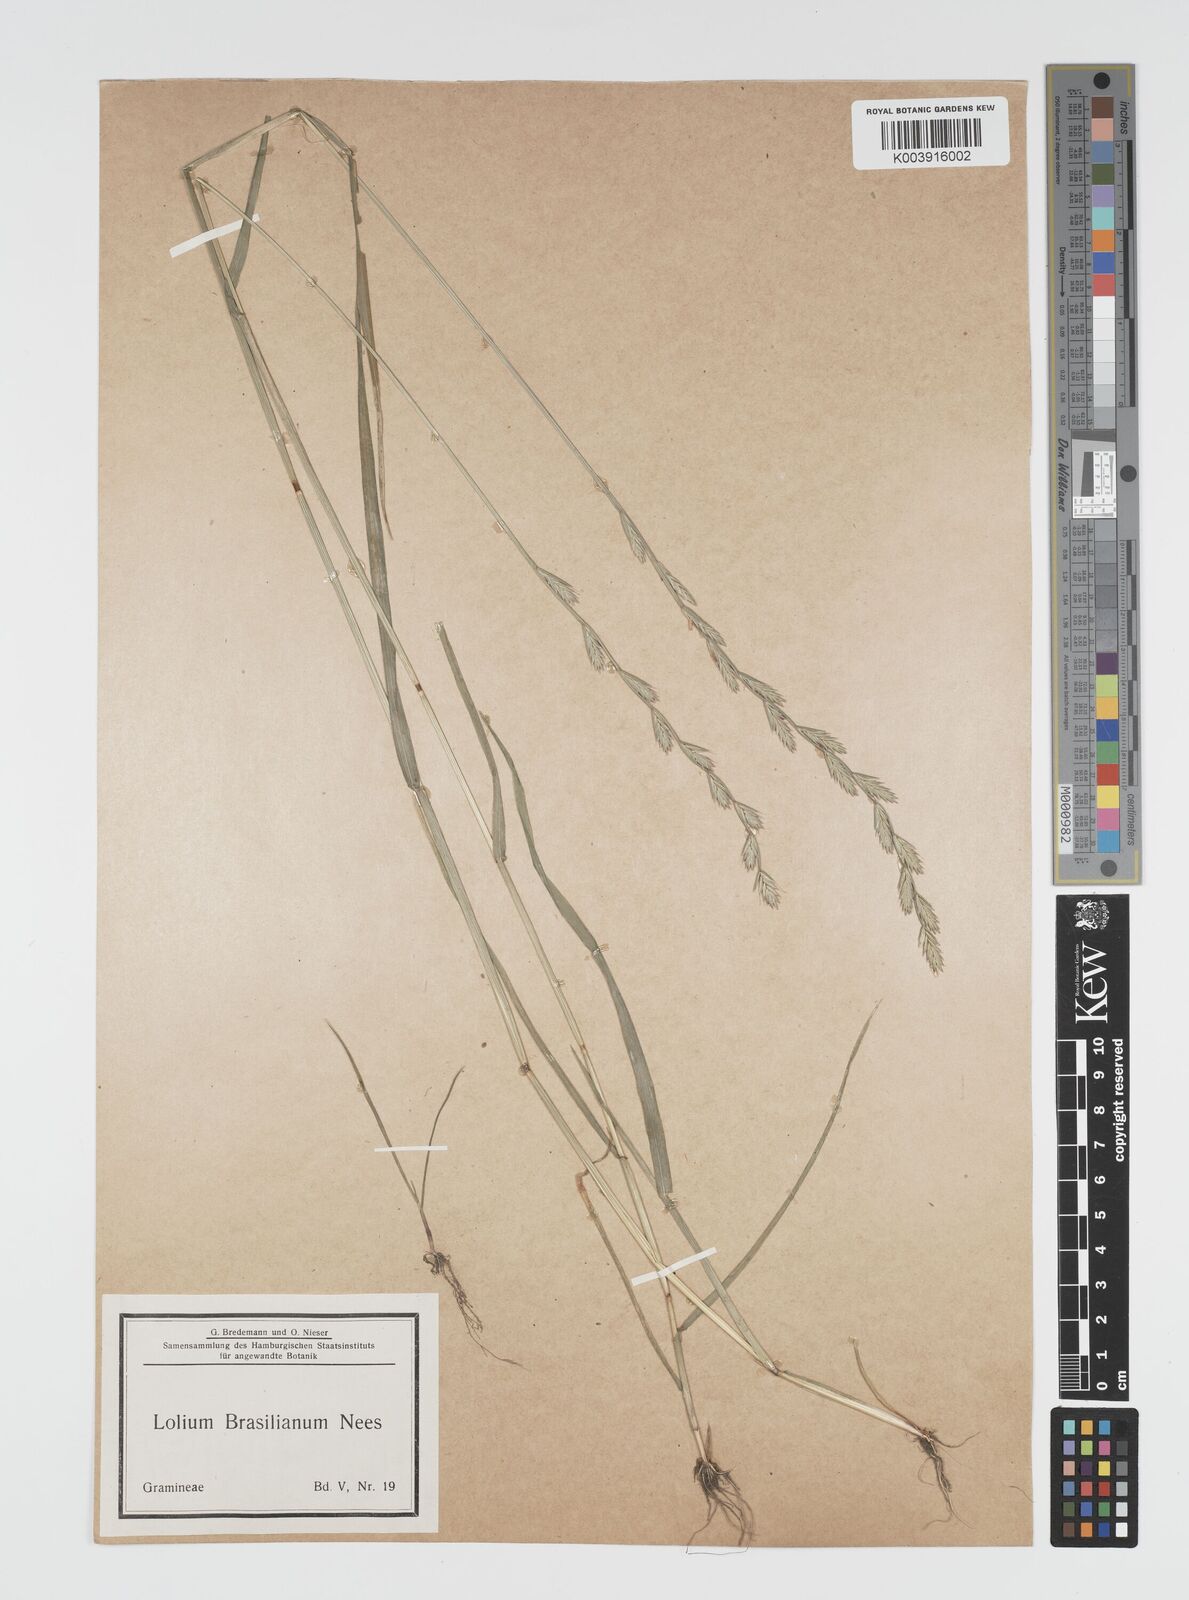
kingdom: Plantae
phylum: Tracheophyta
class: Liliopsida
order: Poales
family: Poaceae
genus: Lolium
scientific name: Lolium multiflorum
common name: Annual ryegrass
